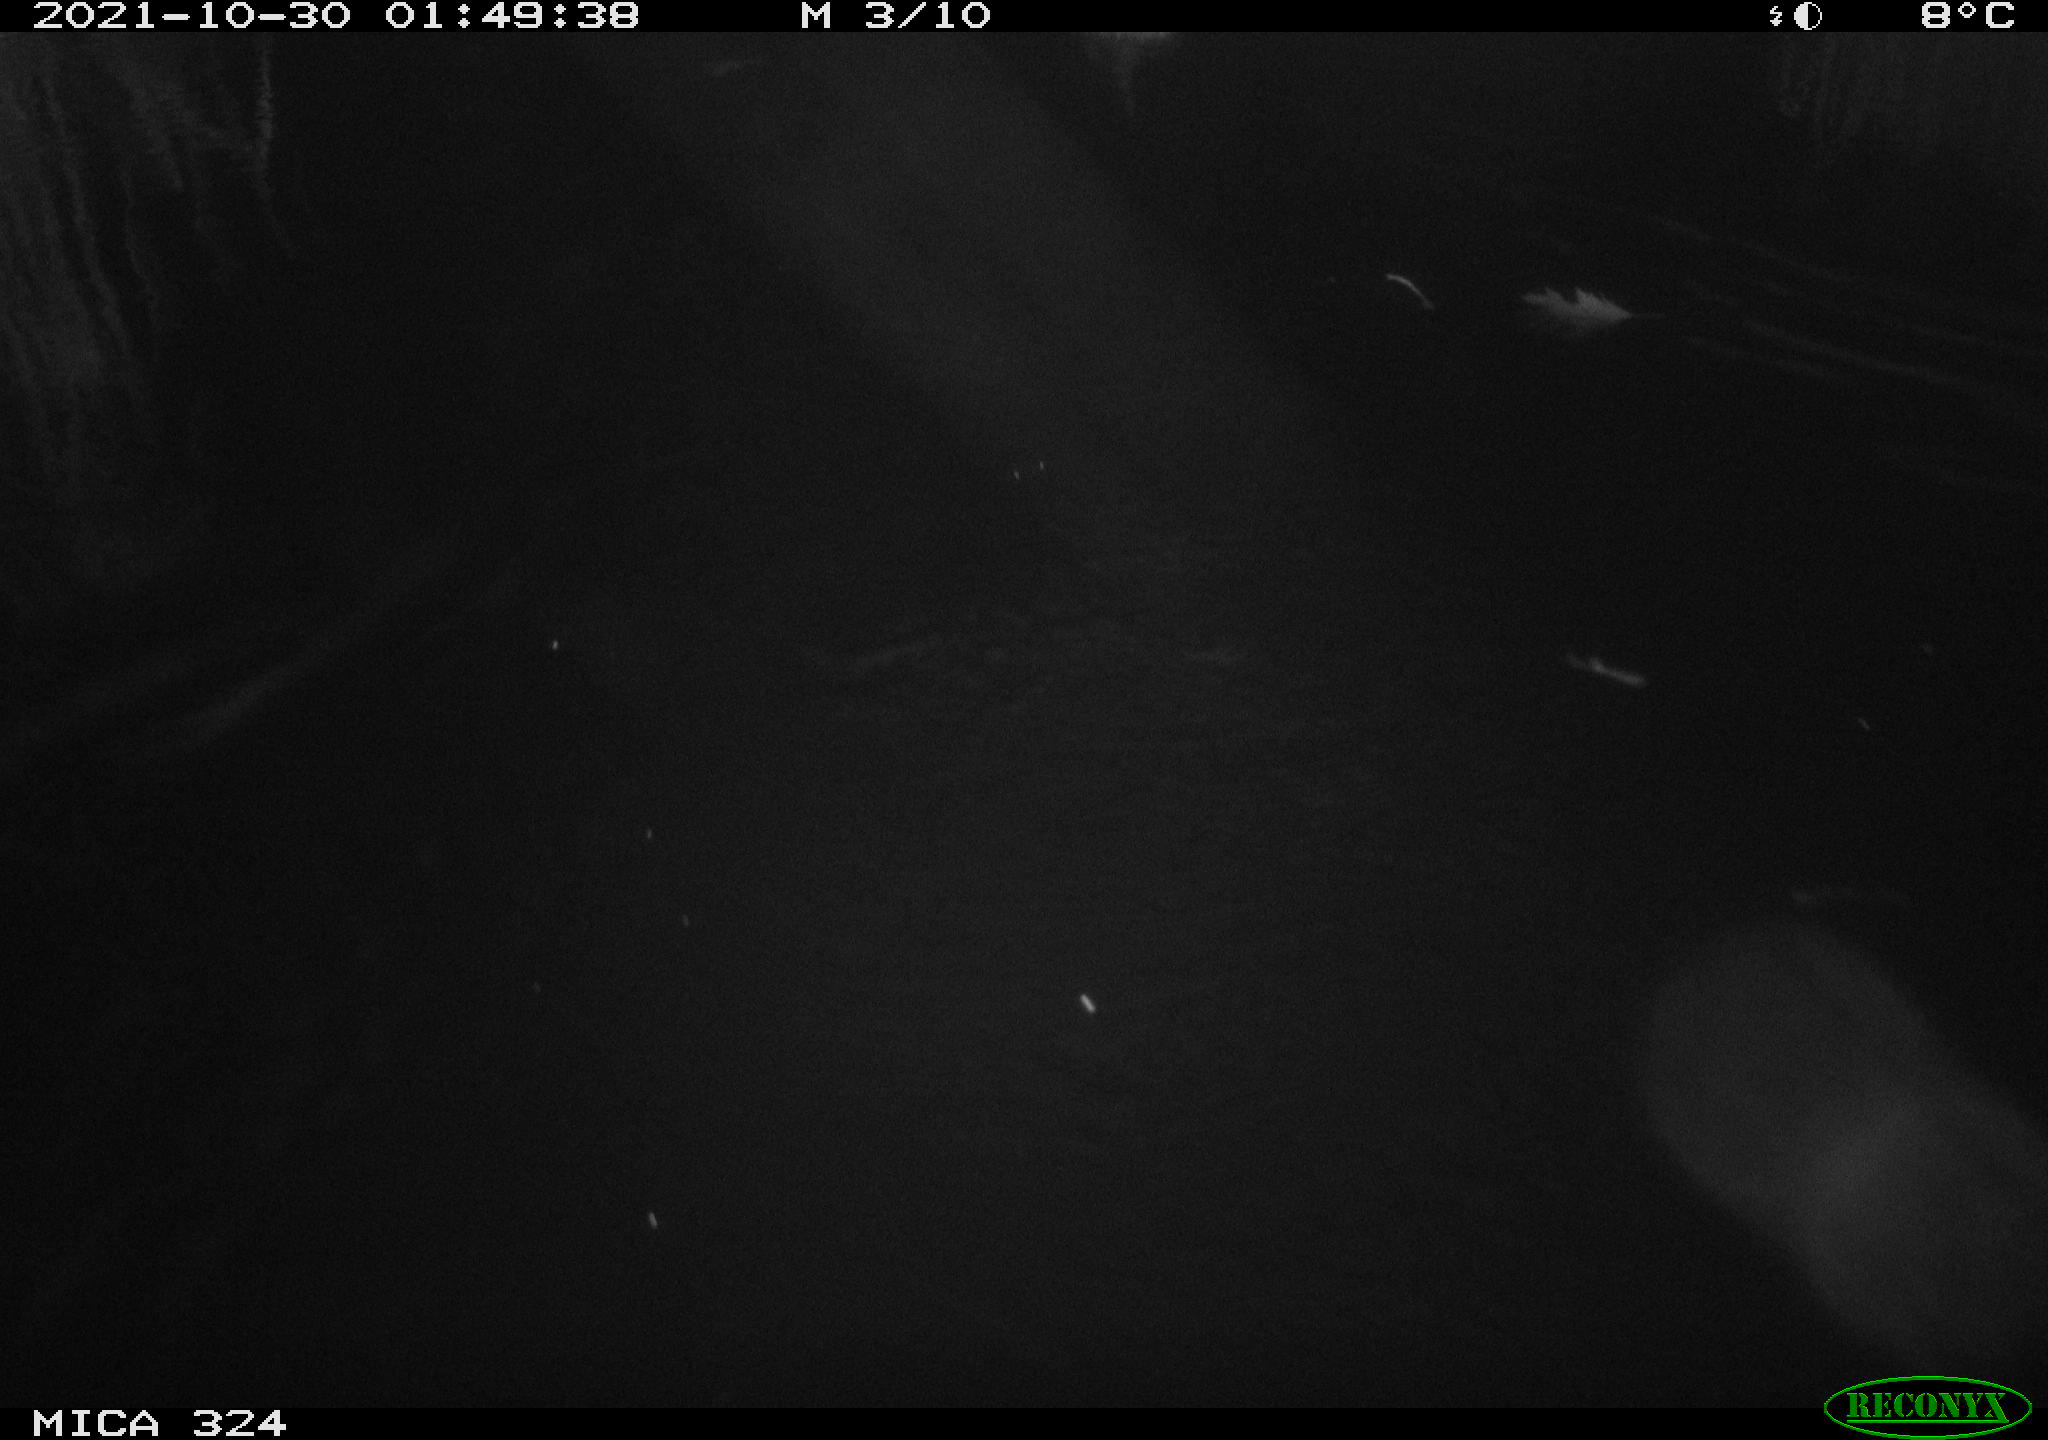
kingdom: Animalia
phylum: Chordata
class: Mammalia
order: Rodentia
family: Cricetidae
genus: Ondatra
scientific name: Ondatra zibethicus
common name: Muskrat
